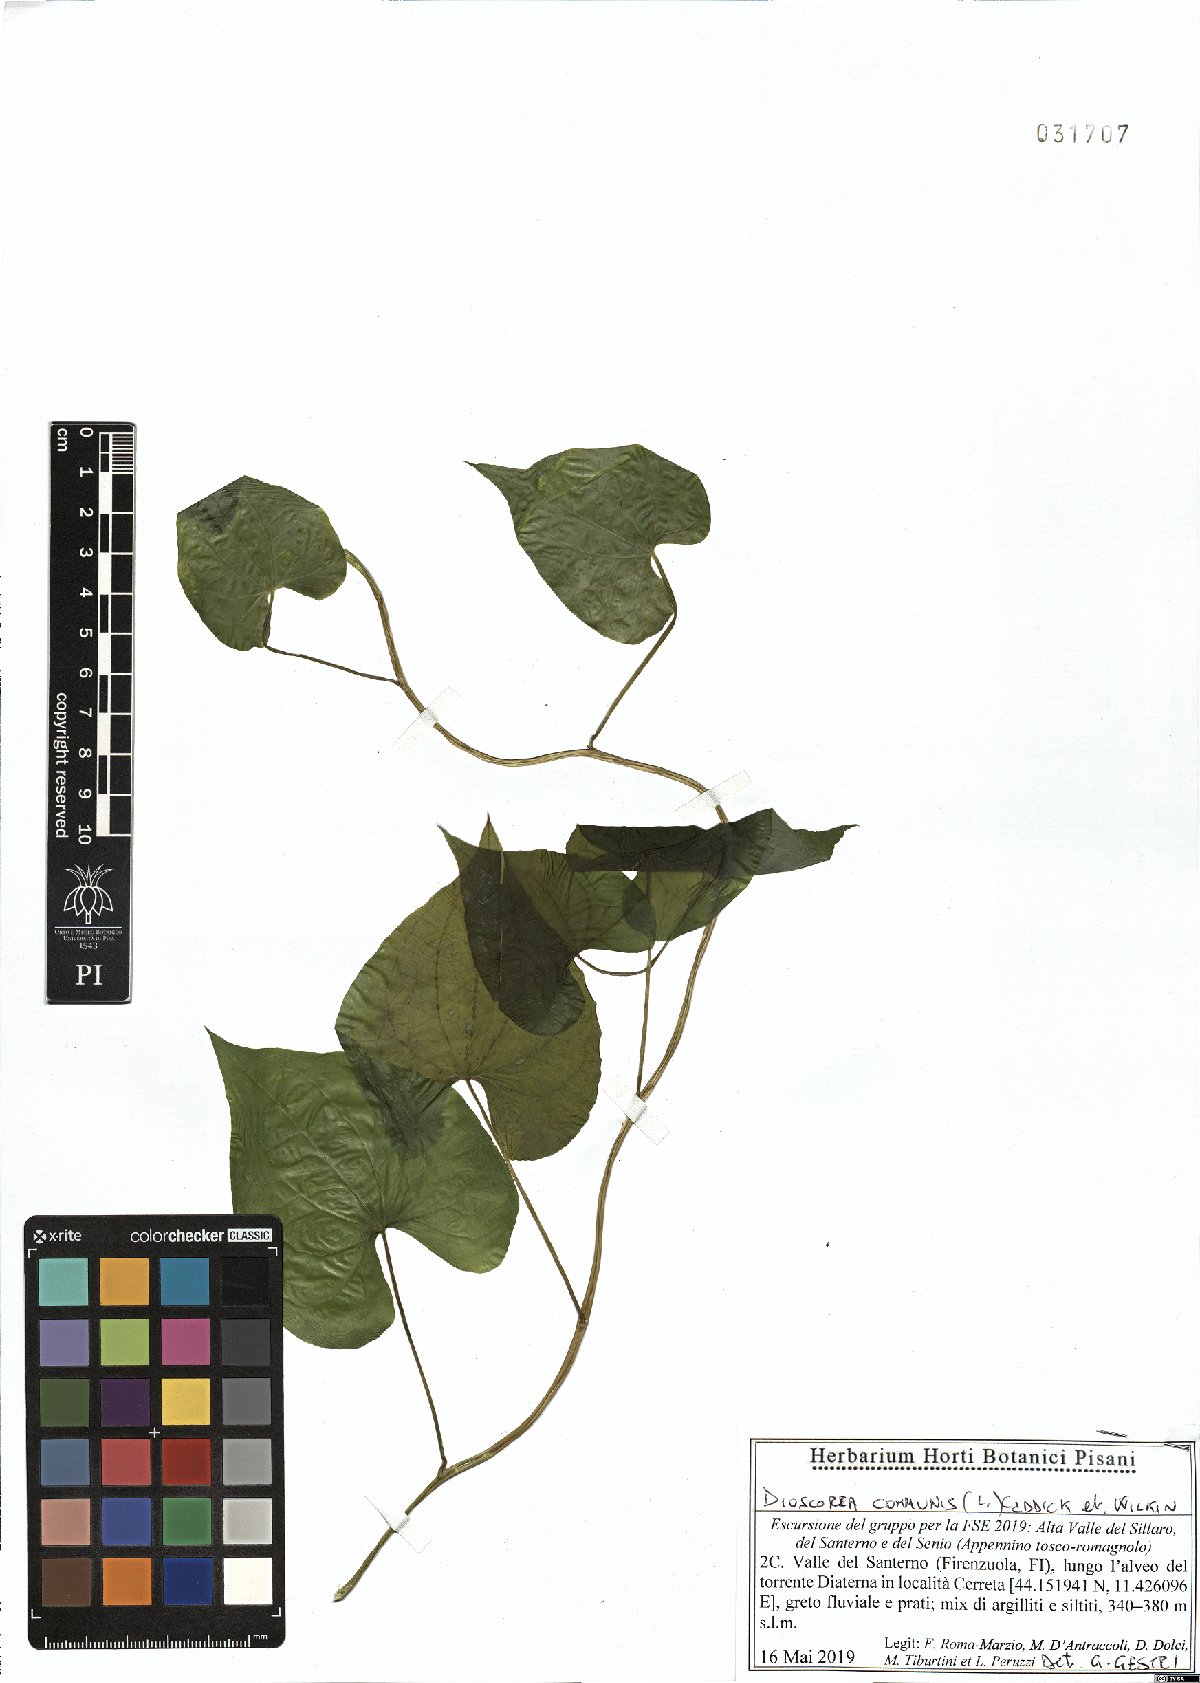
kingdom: Plantae
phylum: Tracheophyta
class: Liliopsida
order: Dioscoreales
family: Dioscoreaceae
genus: Dioscorea
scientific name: Dioscorea communis
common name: Black-bindweed
